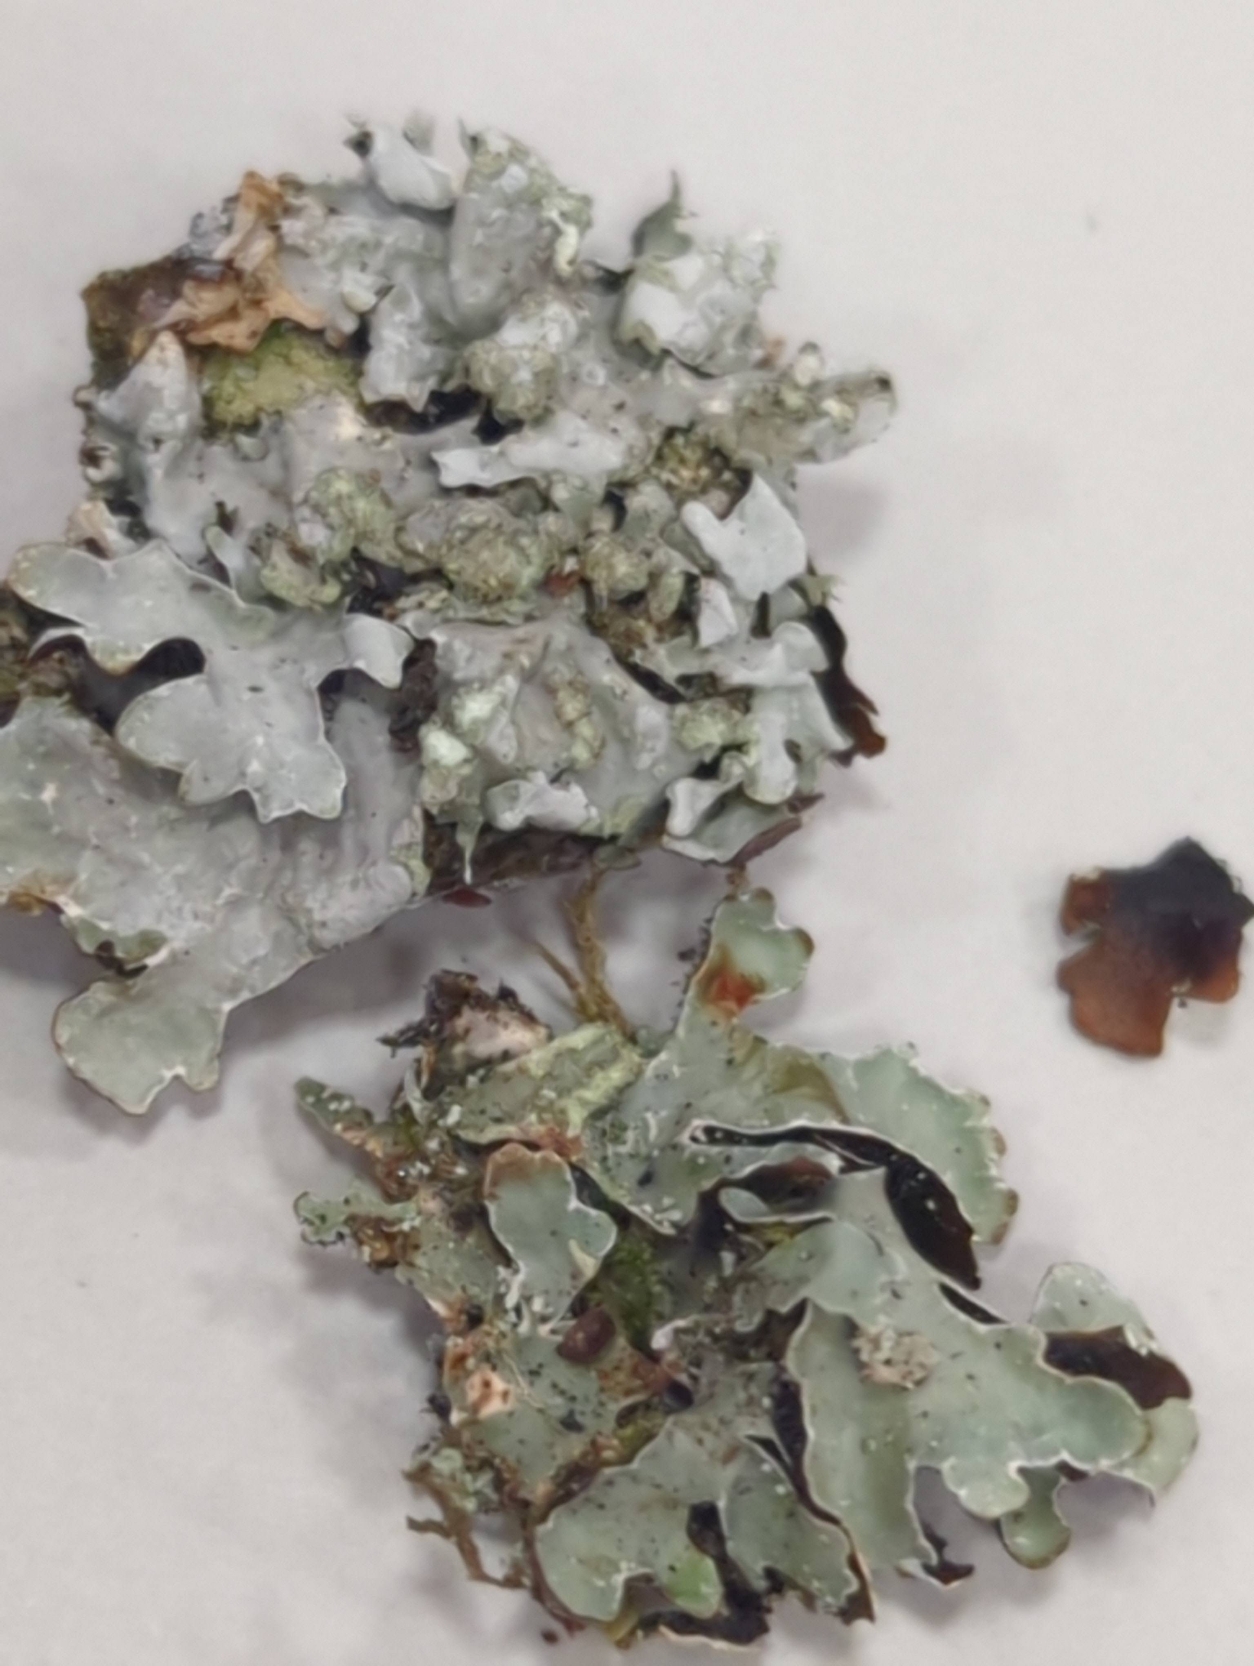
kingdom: Fungi
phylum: Ascomycota
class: Lecanoromycetes
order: Lecanorales
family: Parmeliaceae
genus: Parmelia
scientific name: Parmelia sulcata
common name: Rynket skållav
